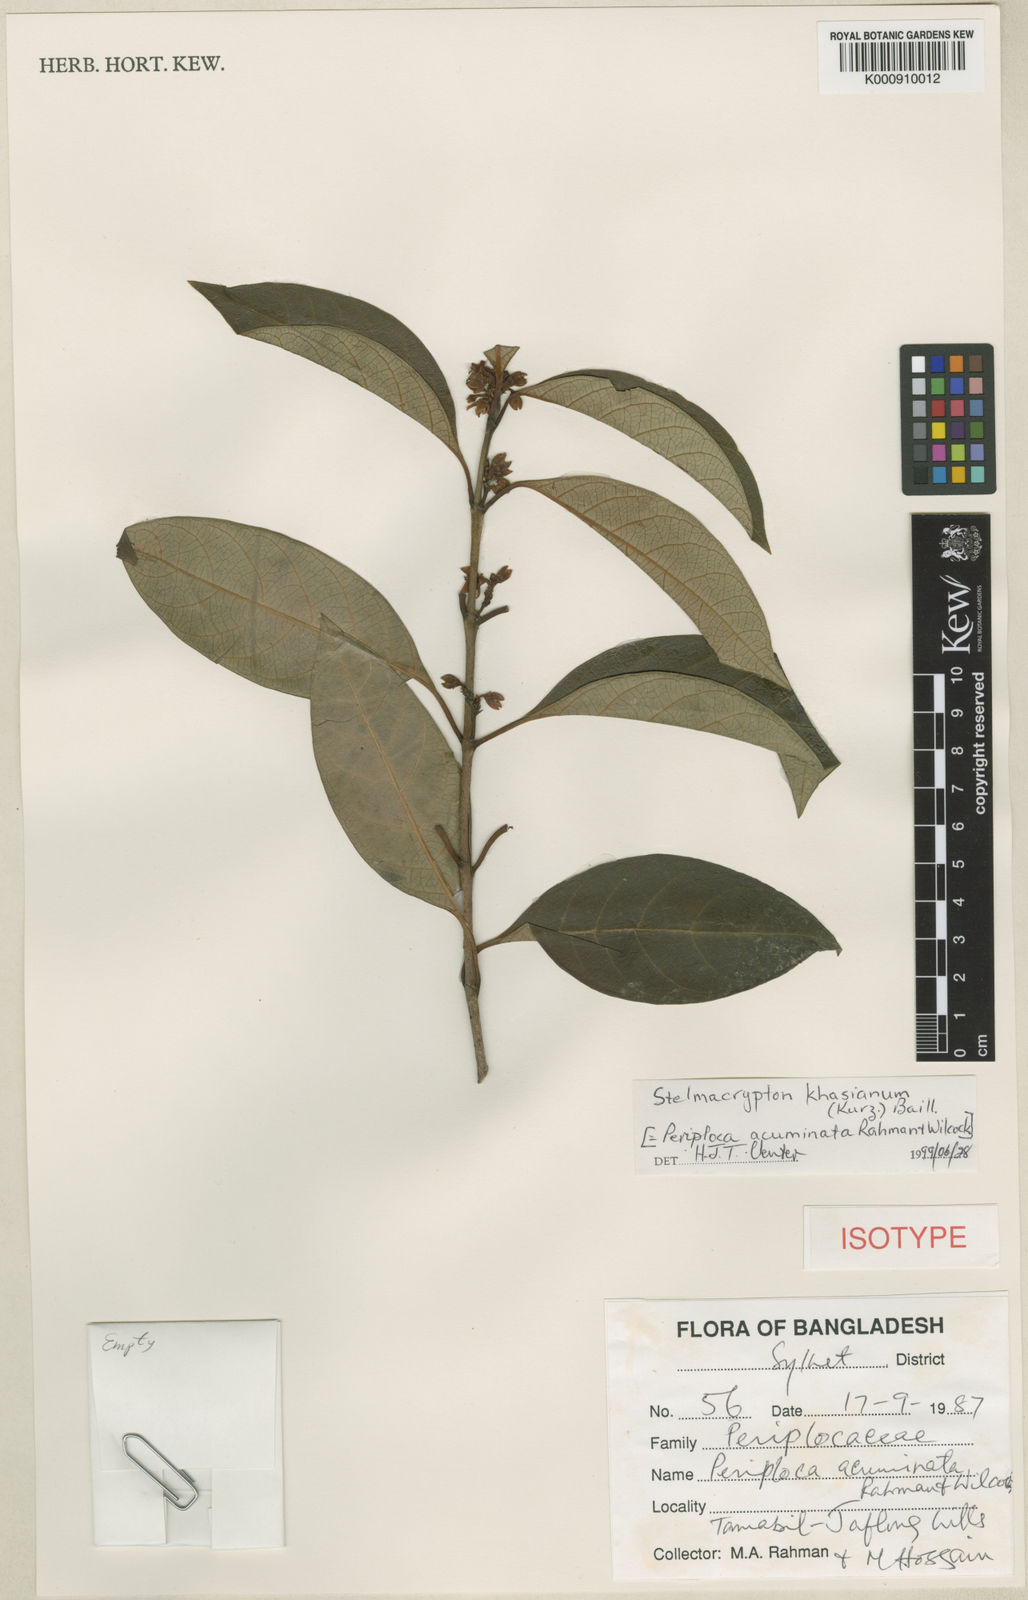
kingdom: Plantae
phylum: Tracheophyta
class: Magnoliopsida
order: Gentianales
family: Apocynaceae
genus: Decalepis
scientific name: Decalepis khasiana
